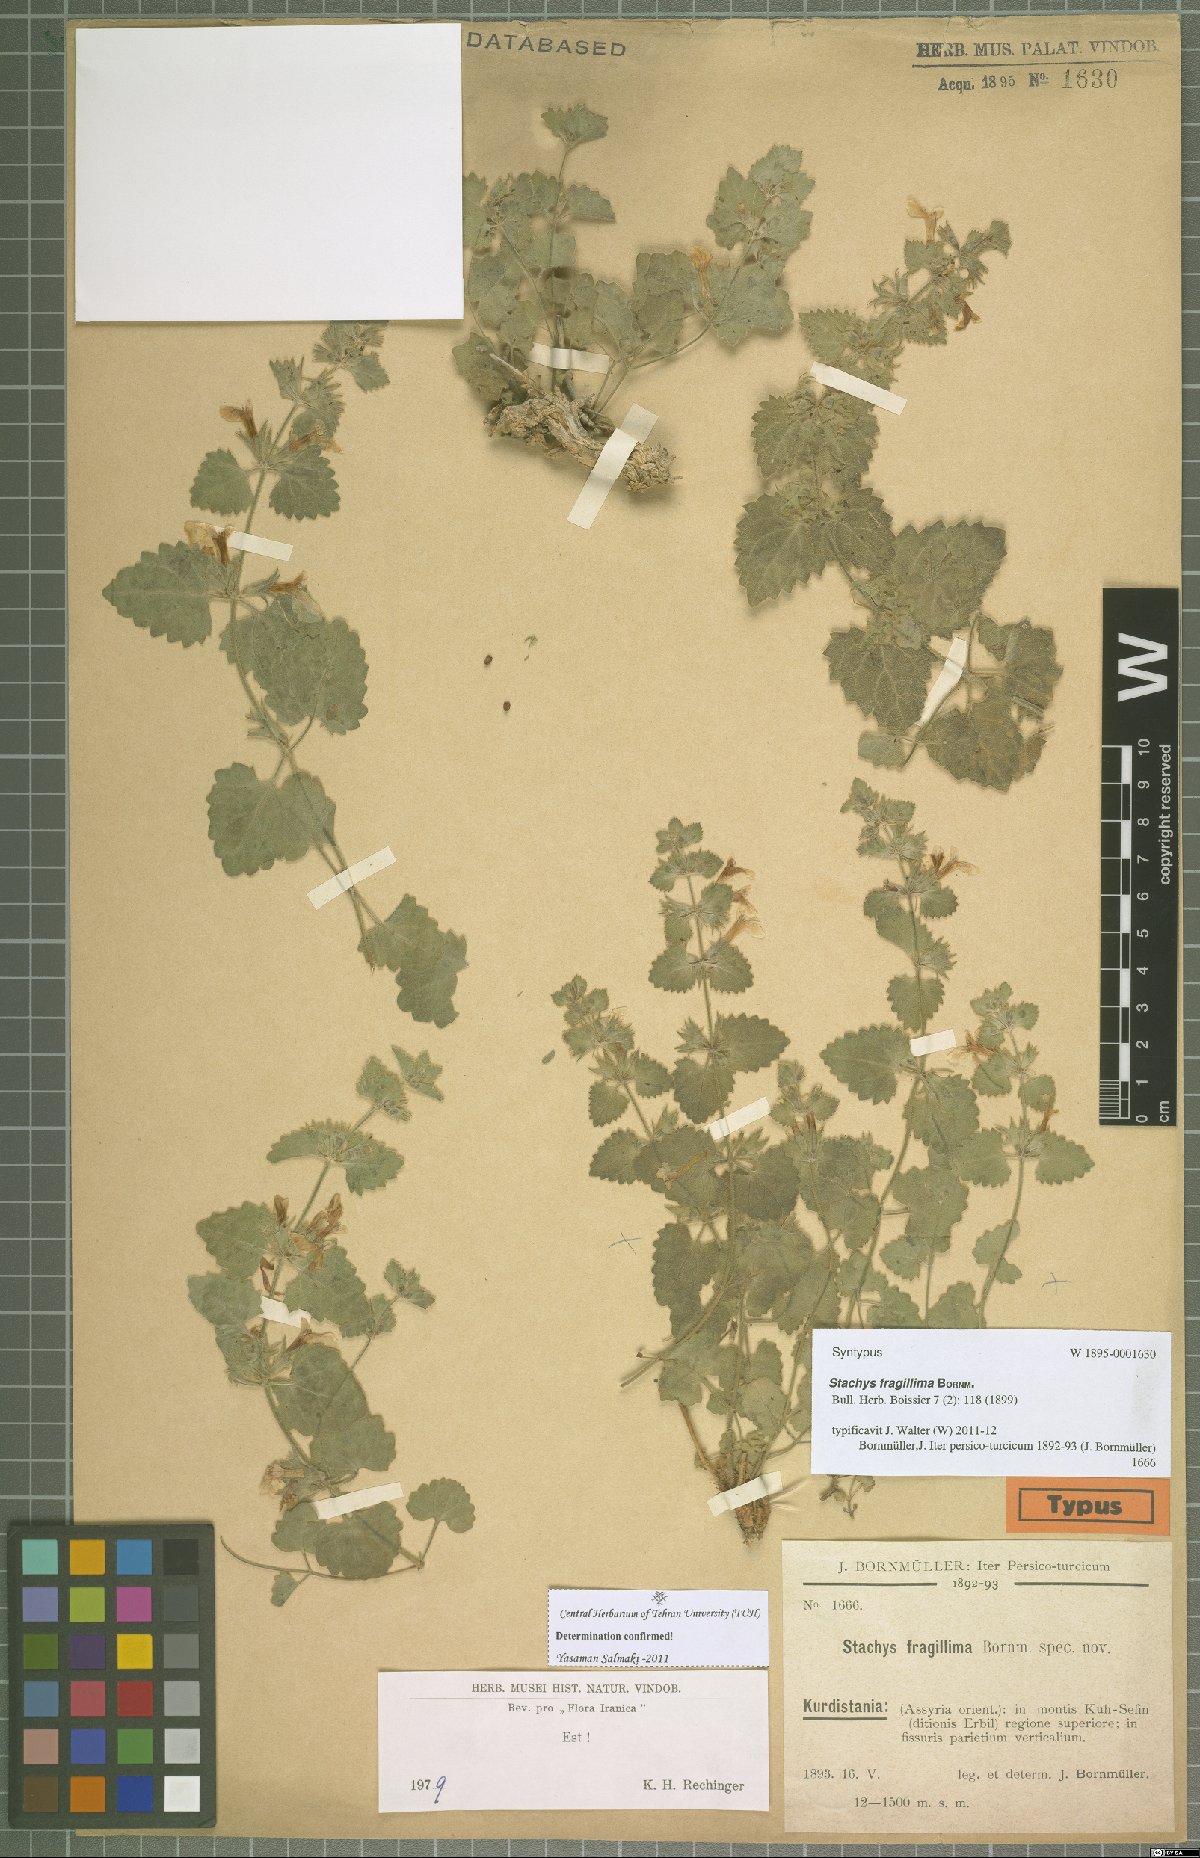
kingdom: Plantae
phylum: Tracheophyta
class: Magnoliopsida
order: Lamiales
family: Lamiaceae
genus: Stachys
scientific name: Stachys fragillima
